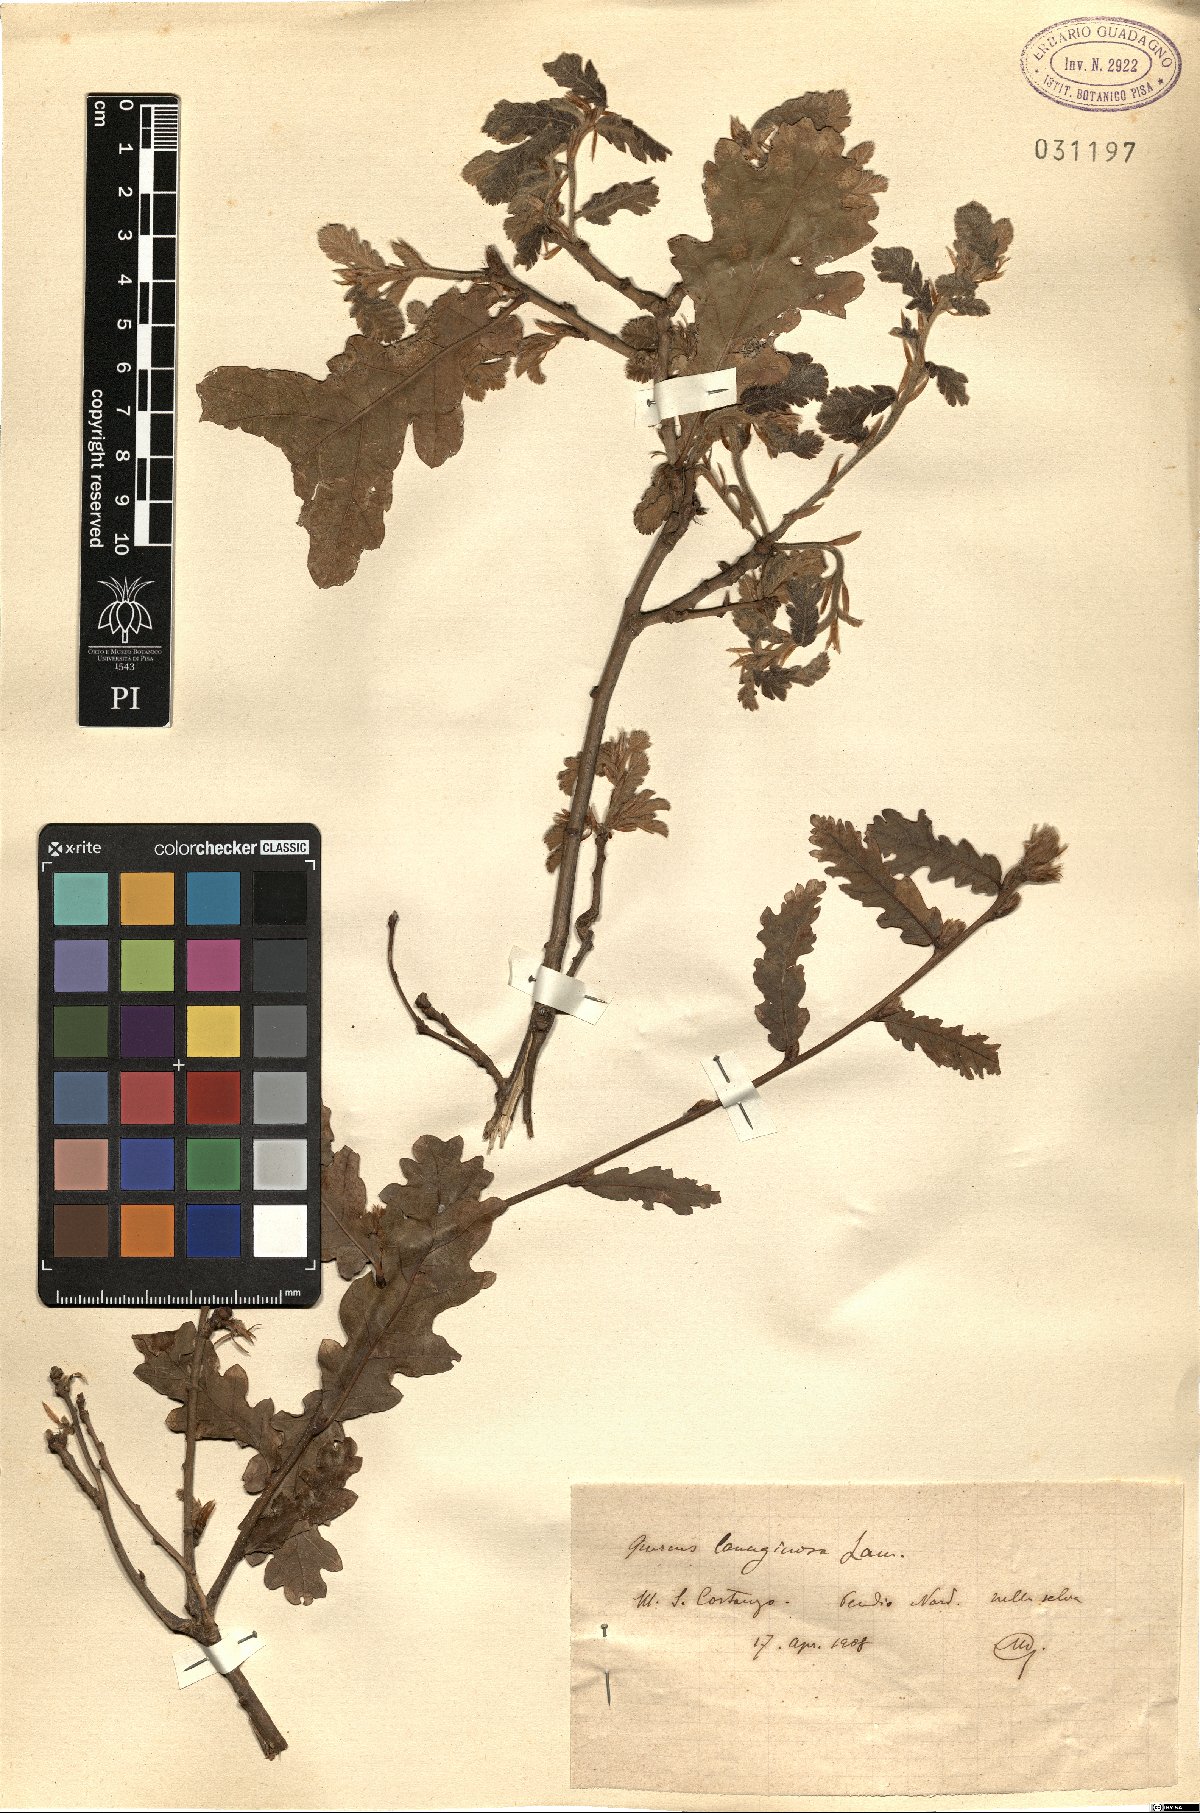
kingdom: Plantae
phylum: Tracheophyta
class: Magnoliopsida
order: Fagales
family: Fagaceae
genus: Quercus
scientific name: Quercus cerris
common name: Turkey oak
